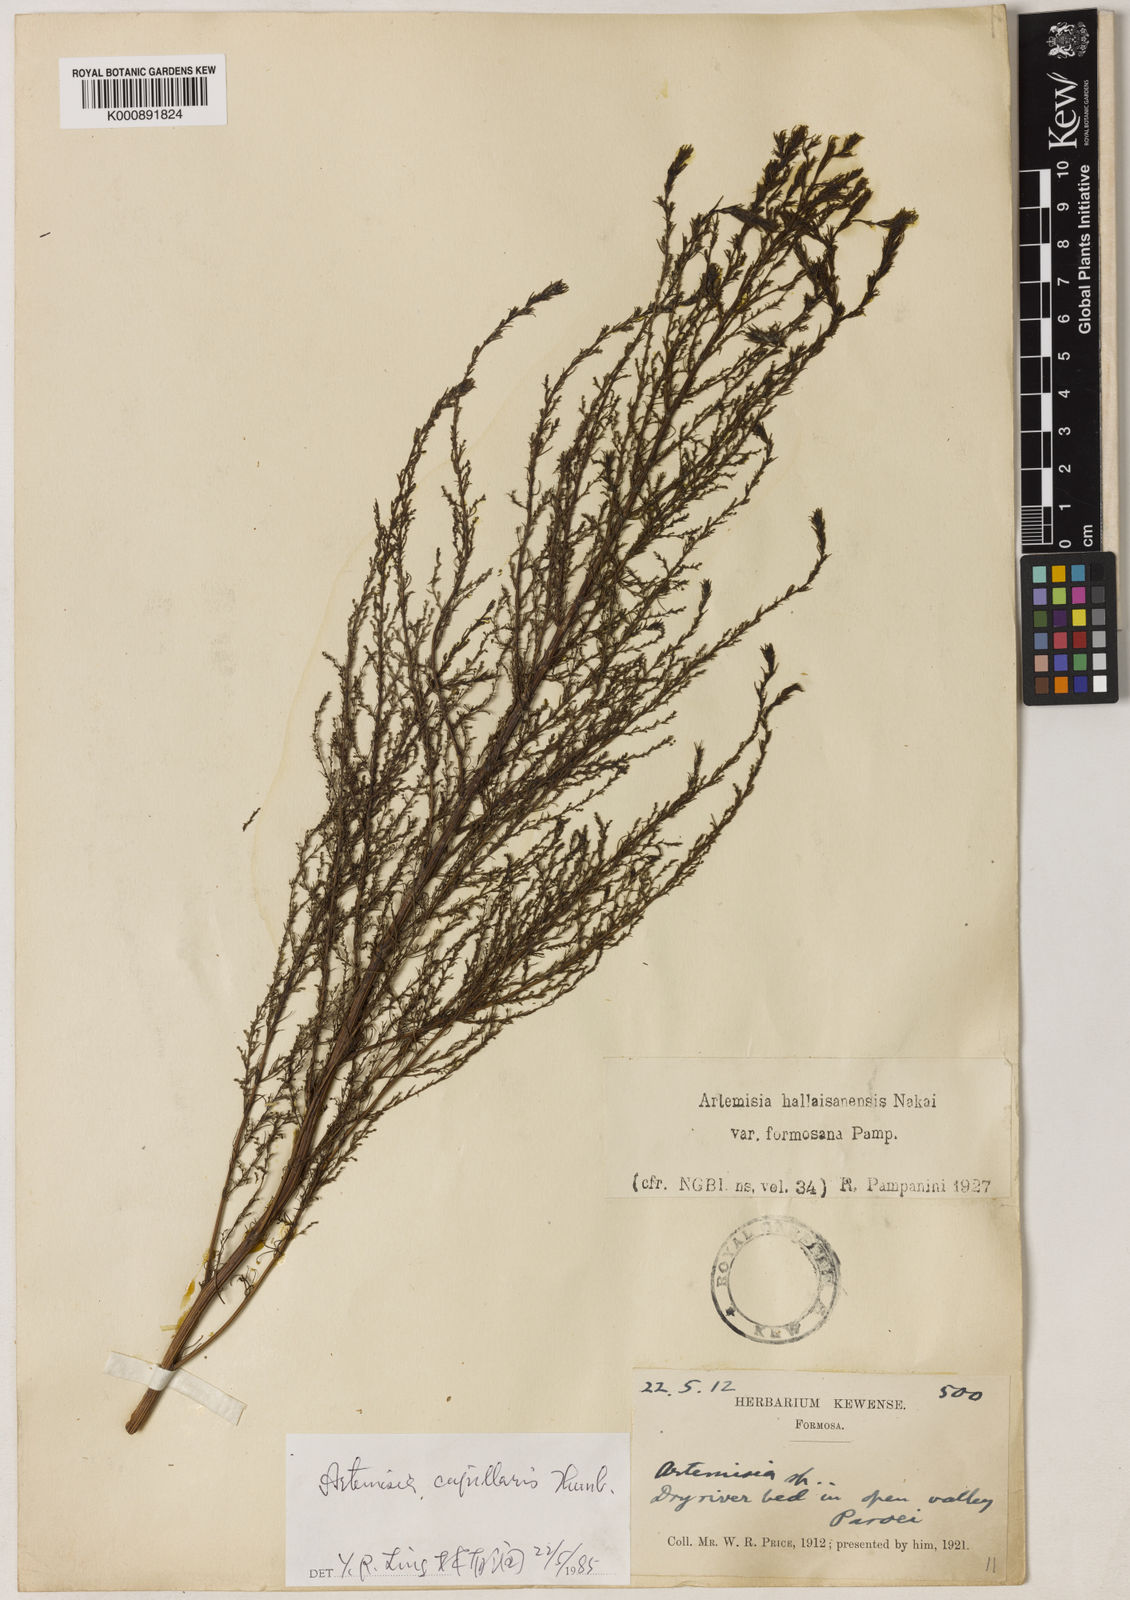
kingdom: Plantae
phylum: Tracheophyta
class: Magnoliopsida
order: Asterales
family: Asteraceae
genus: Artemisia
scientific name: Artemisia capillaris
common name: Yin-chen wormwood
